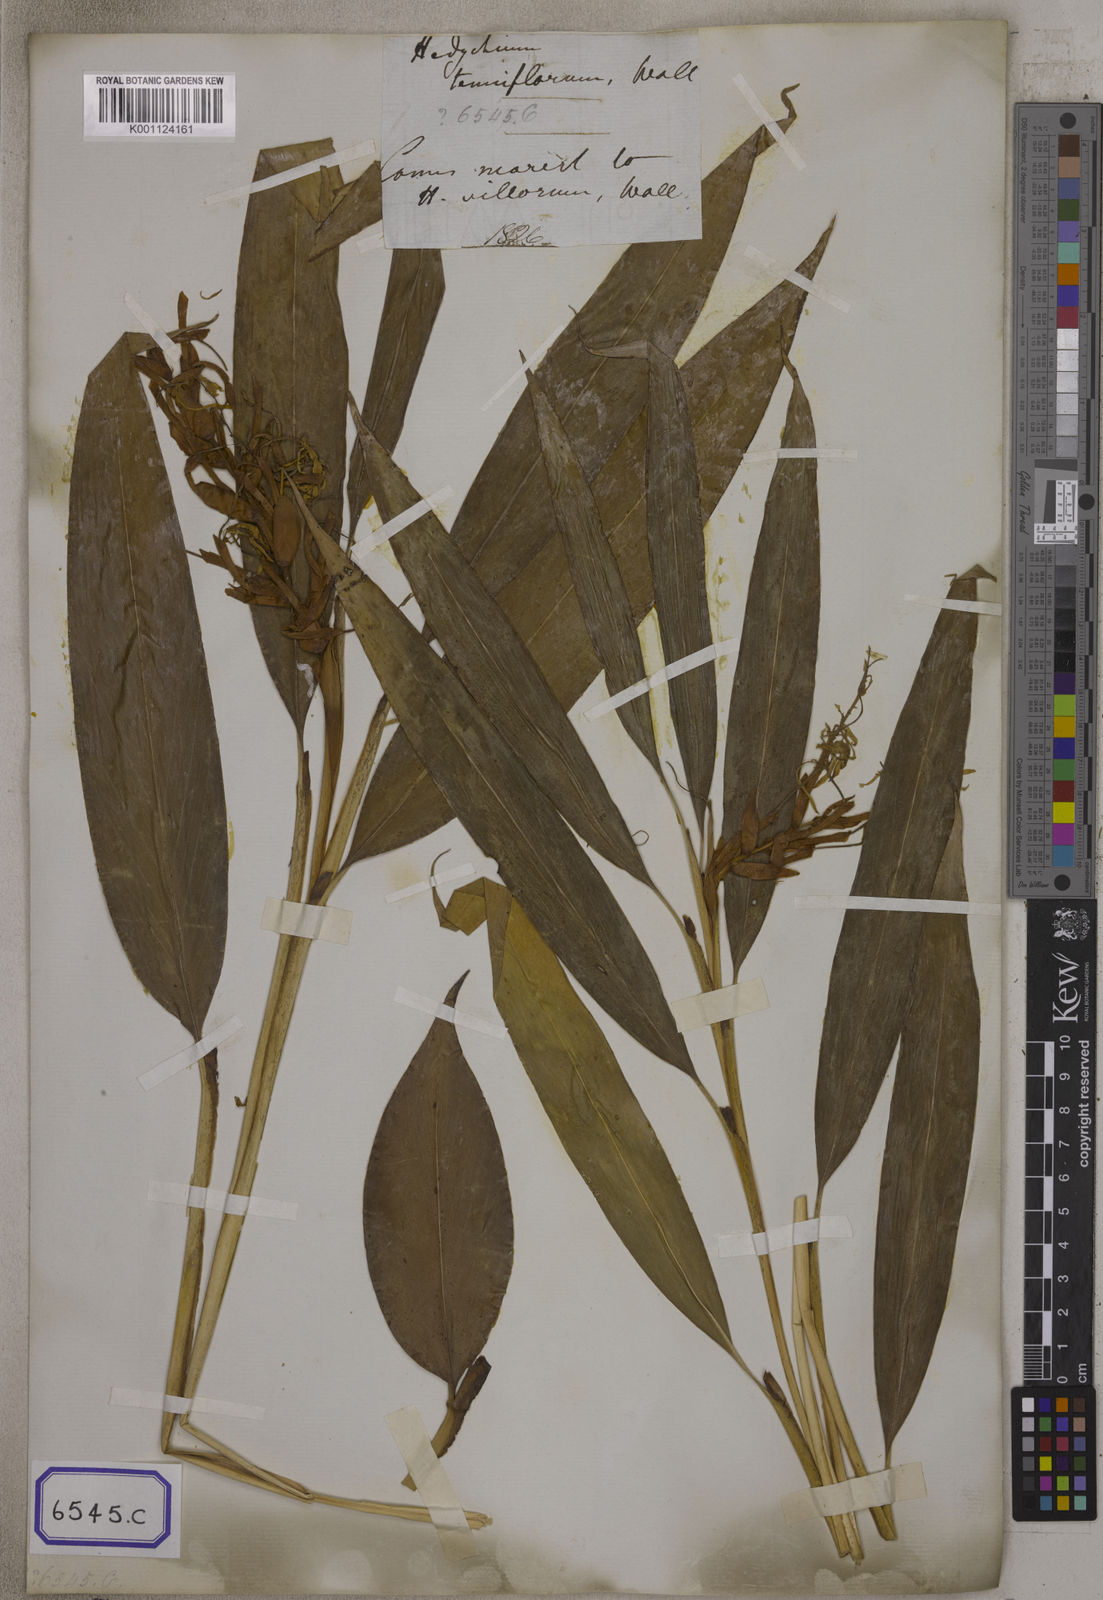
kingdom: Plantae
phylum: Tracheophyta
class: Liliopsida
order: Zingiberales
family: Zingiberaceae
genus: Hedychium
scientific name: Hedychium villosum
